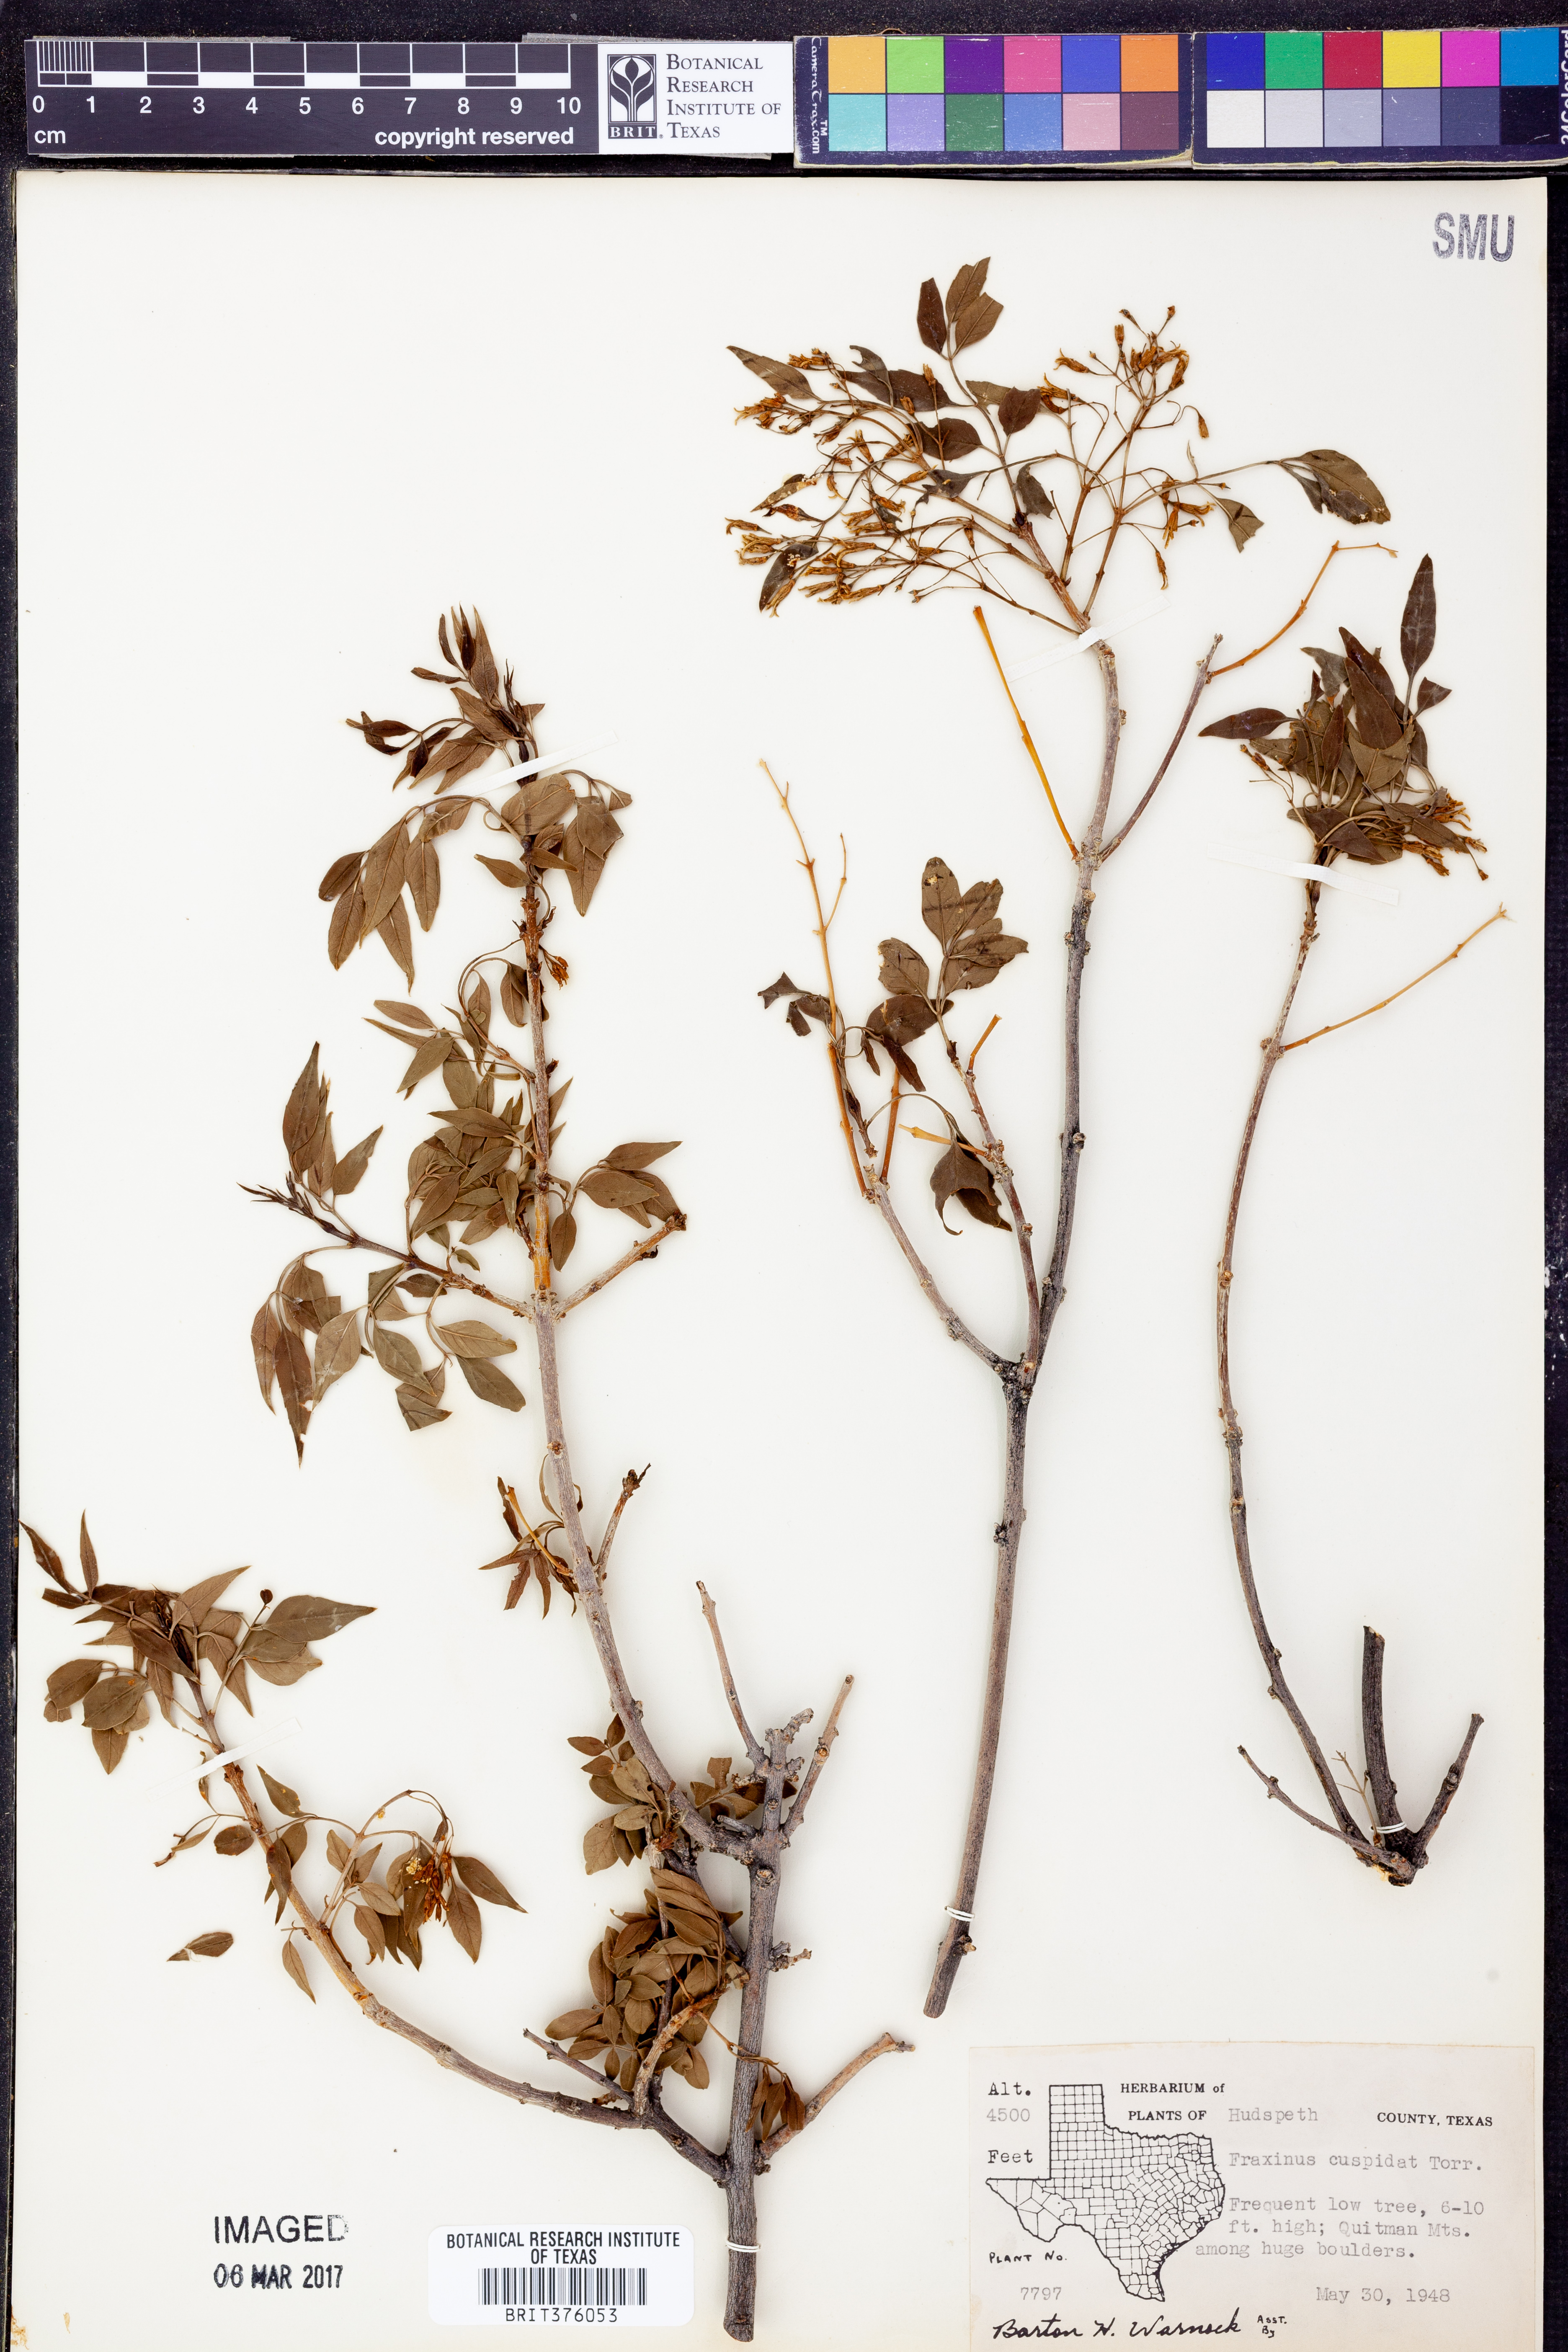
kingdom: Plantae
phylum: Tracheophyta
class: Magnoliopsida
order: Lamiales
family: Oleaceae
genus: Fraxinus
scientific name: Fraxinus cuspidata
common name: Fragrant ash
